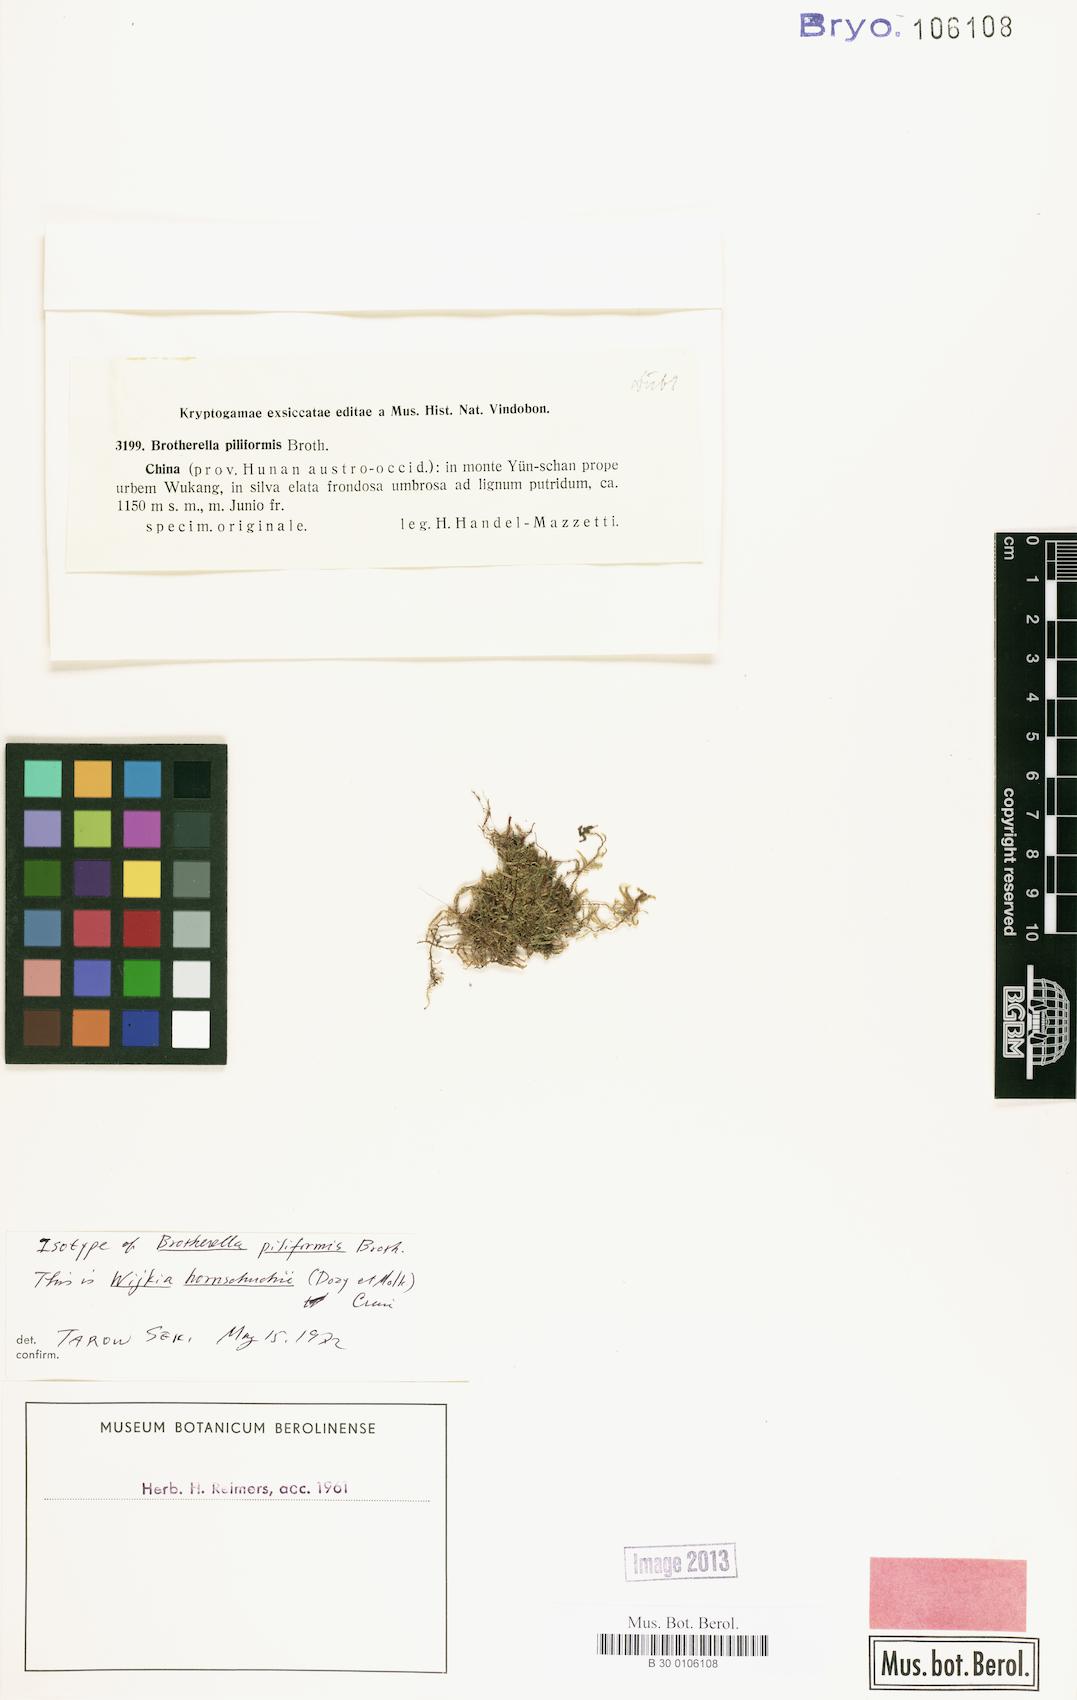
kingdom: Plantae
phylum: Bryophyta
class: Bryopsida
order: Hypnales
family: Pylaisiadelphaceae
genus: Wijkia
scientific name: Wijkia hornschuchii
